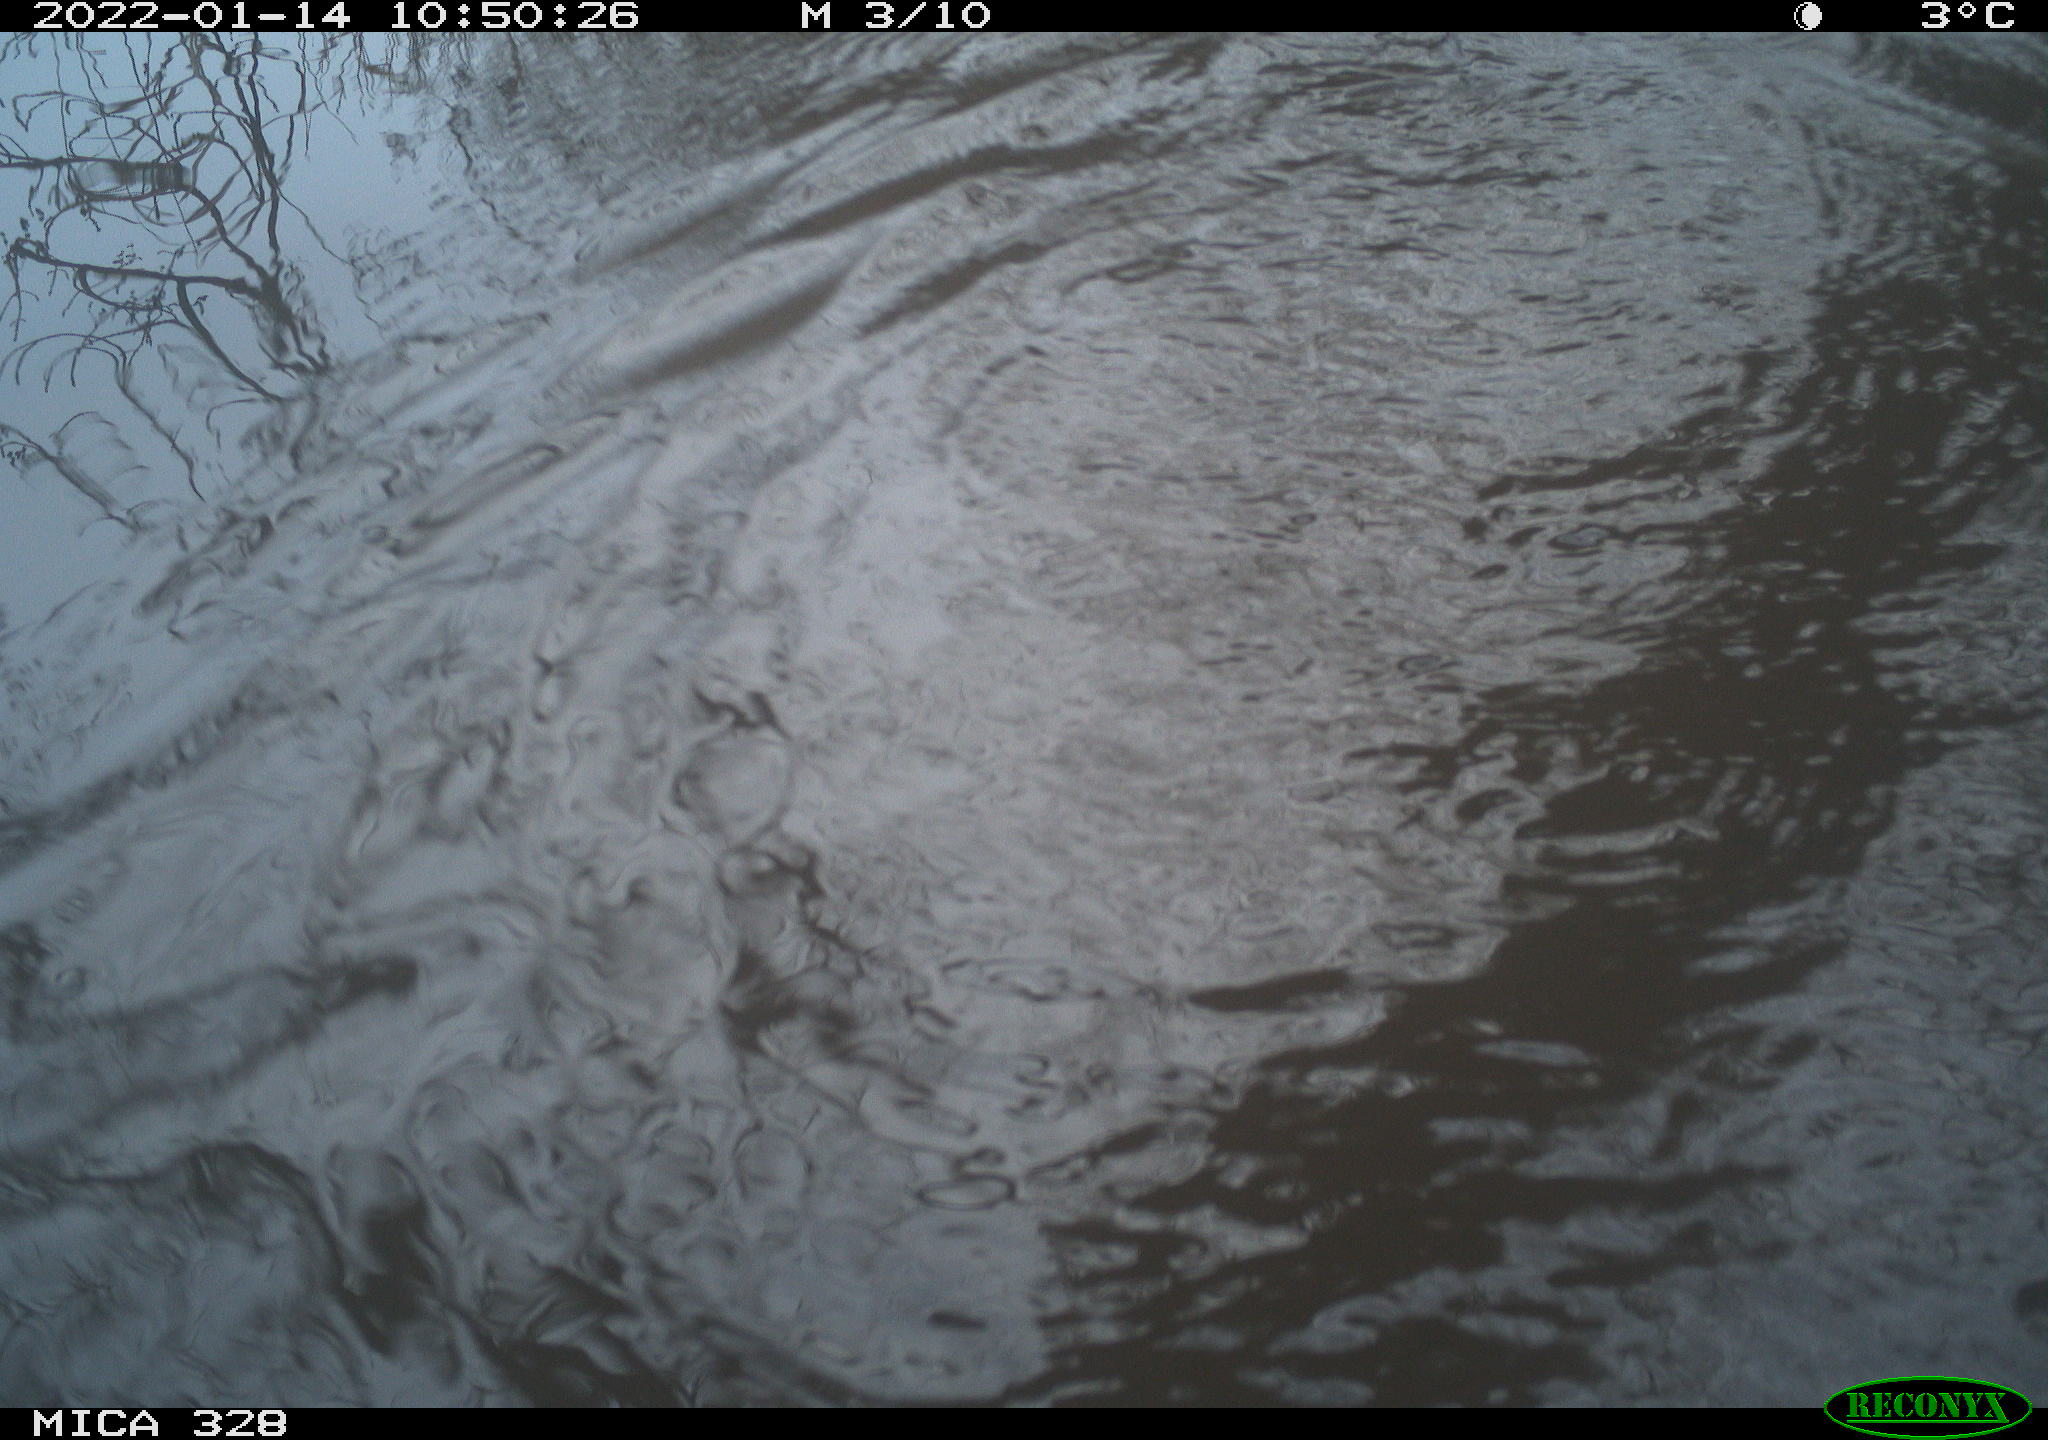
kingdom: Animalia
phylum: Chordata
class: Mammalia
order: Rodentia
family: Cricetidae
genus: Ondatra
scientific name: Ondatra zibethicus
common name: Muskrat
